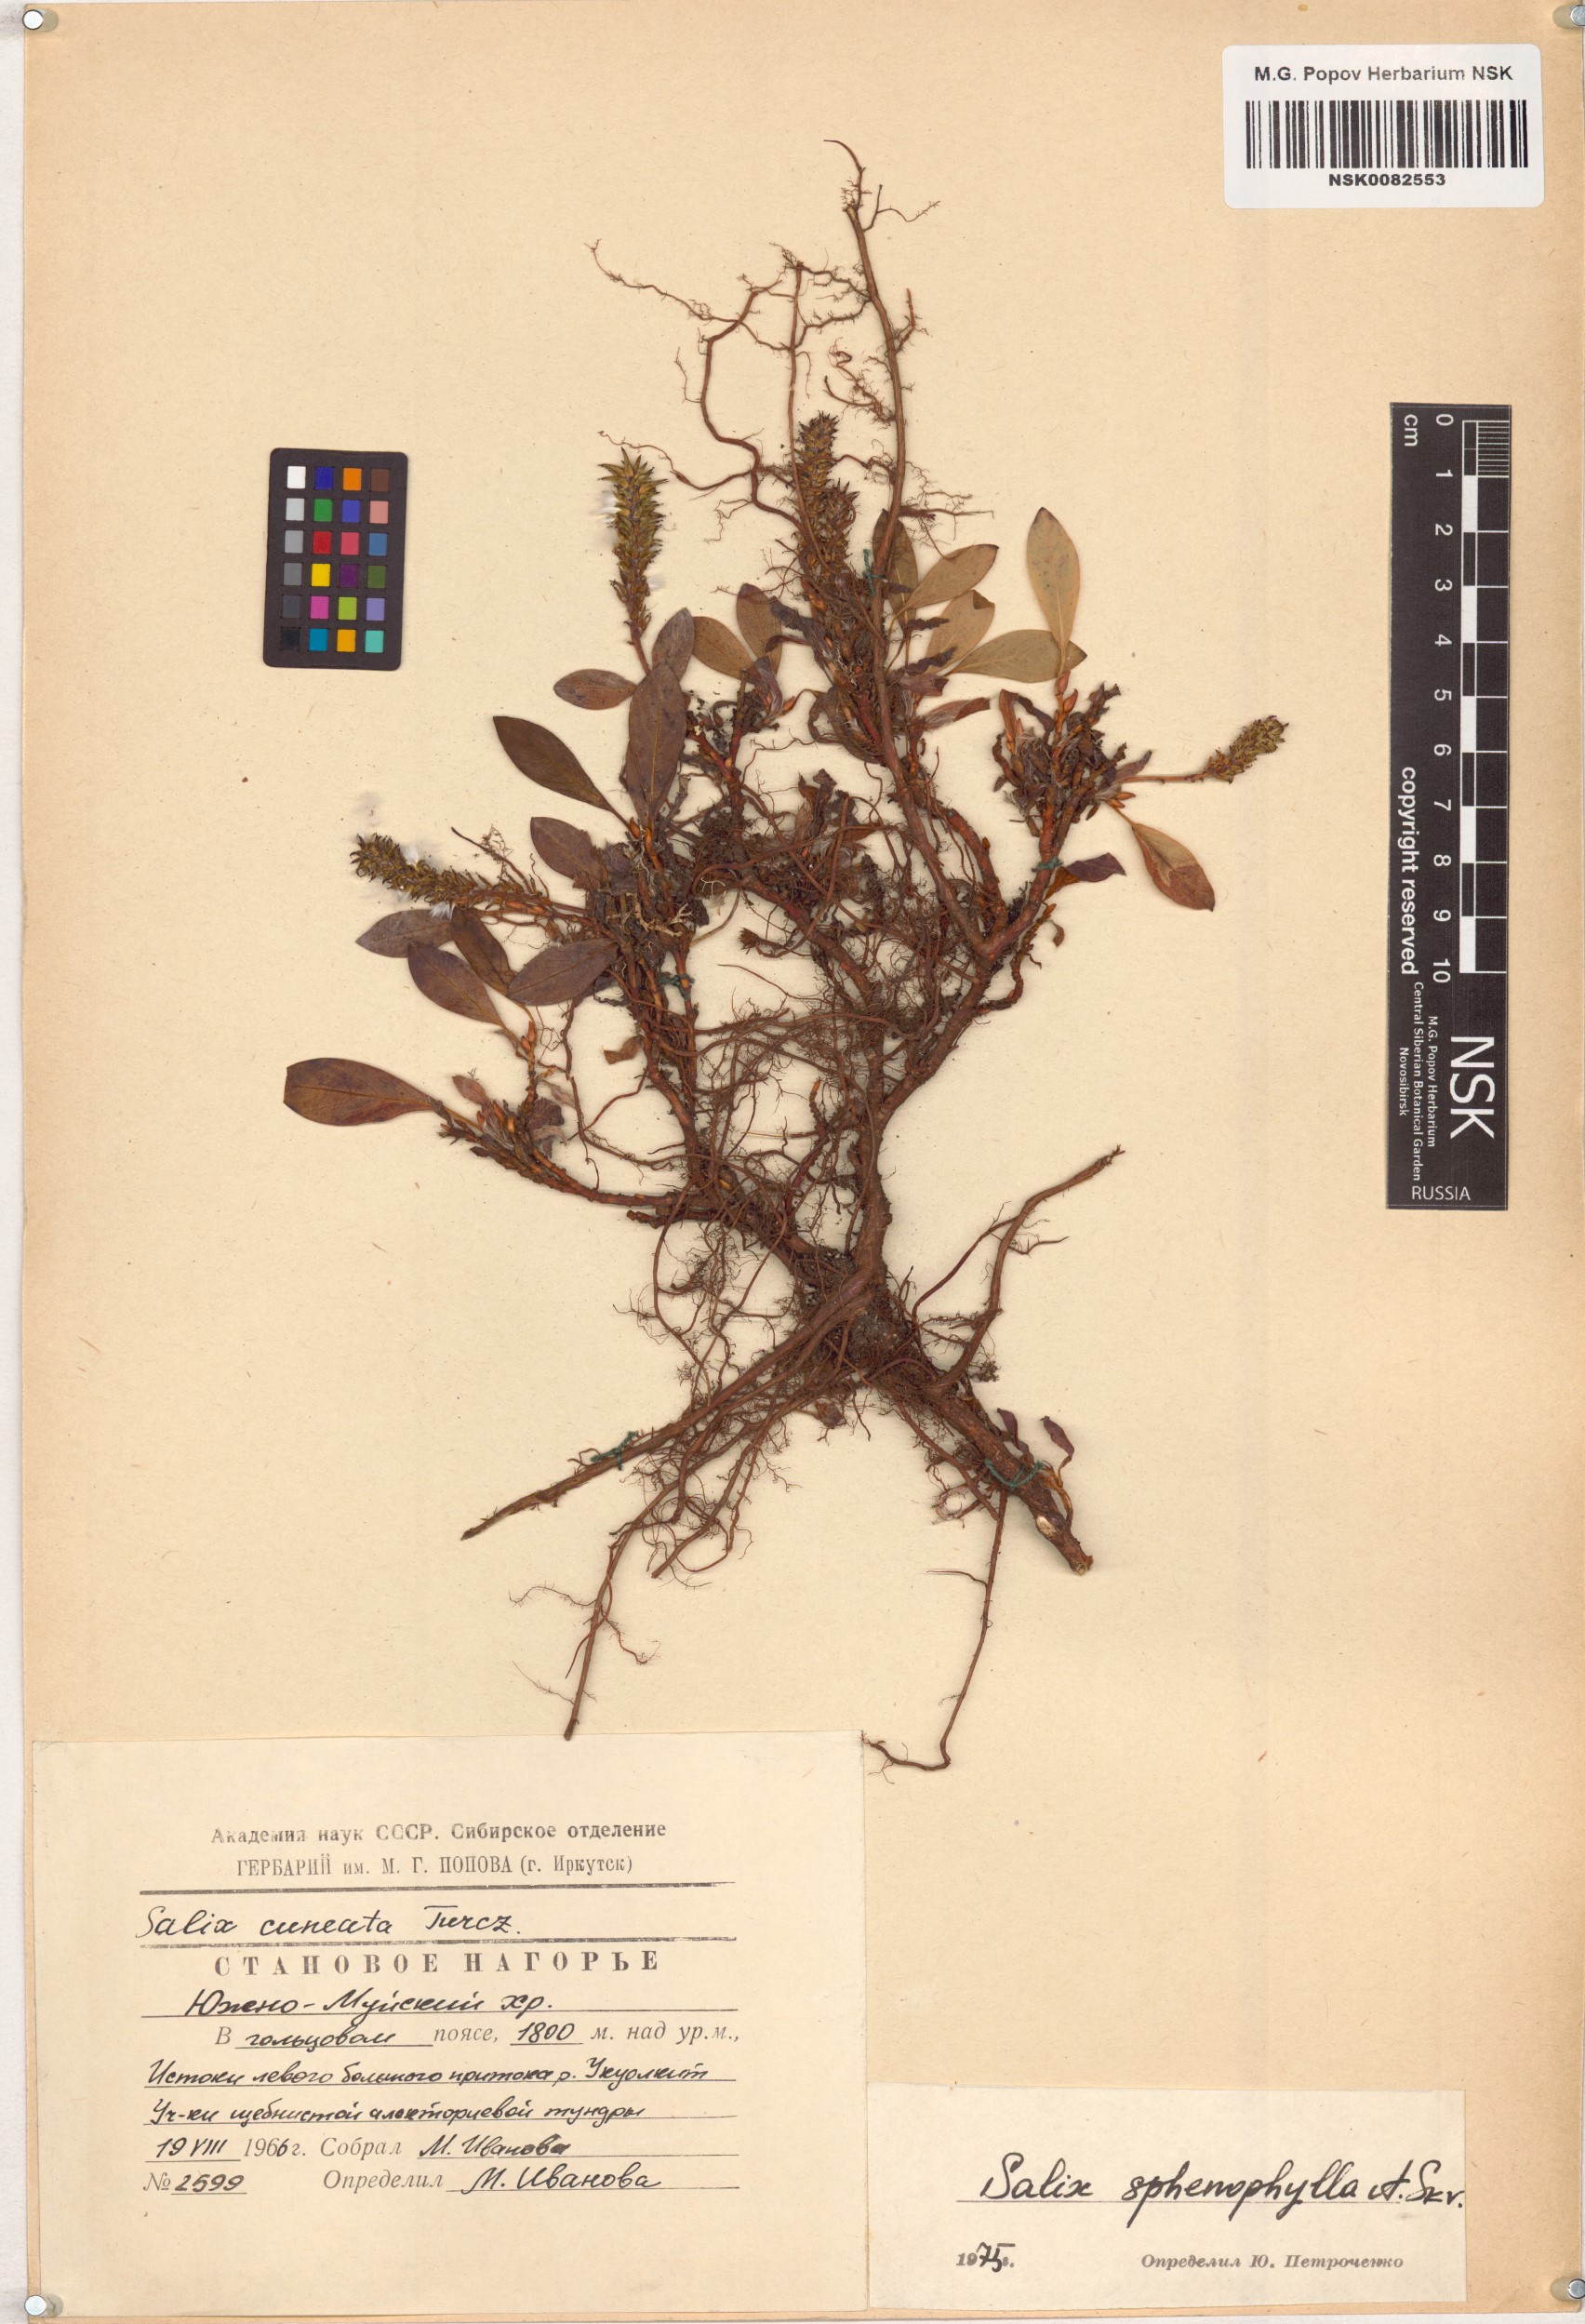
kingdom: Plantae
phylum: Tracheophyta
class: Magnoliopsida
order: Malpighiales
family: Salicaceae
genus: Salix
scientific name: Salix sphenophylla
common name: Wedge-leaved willow
